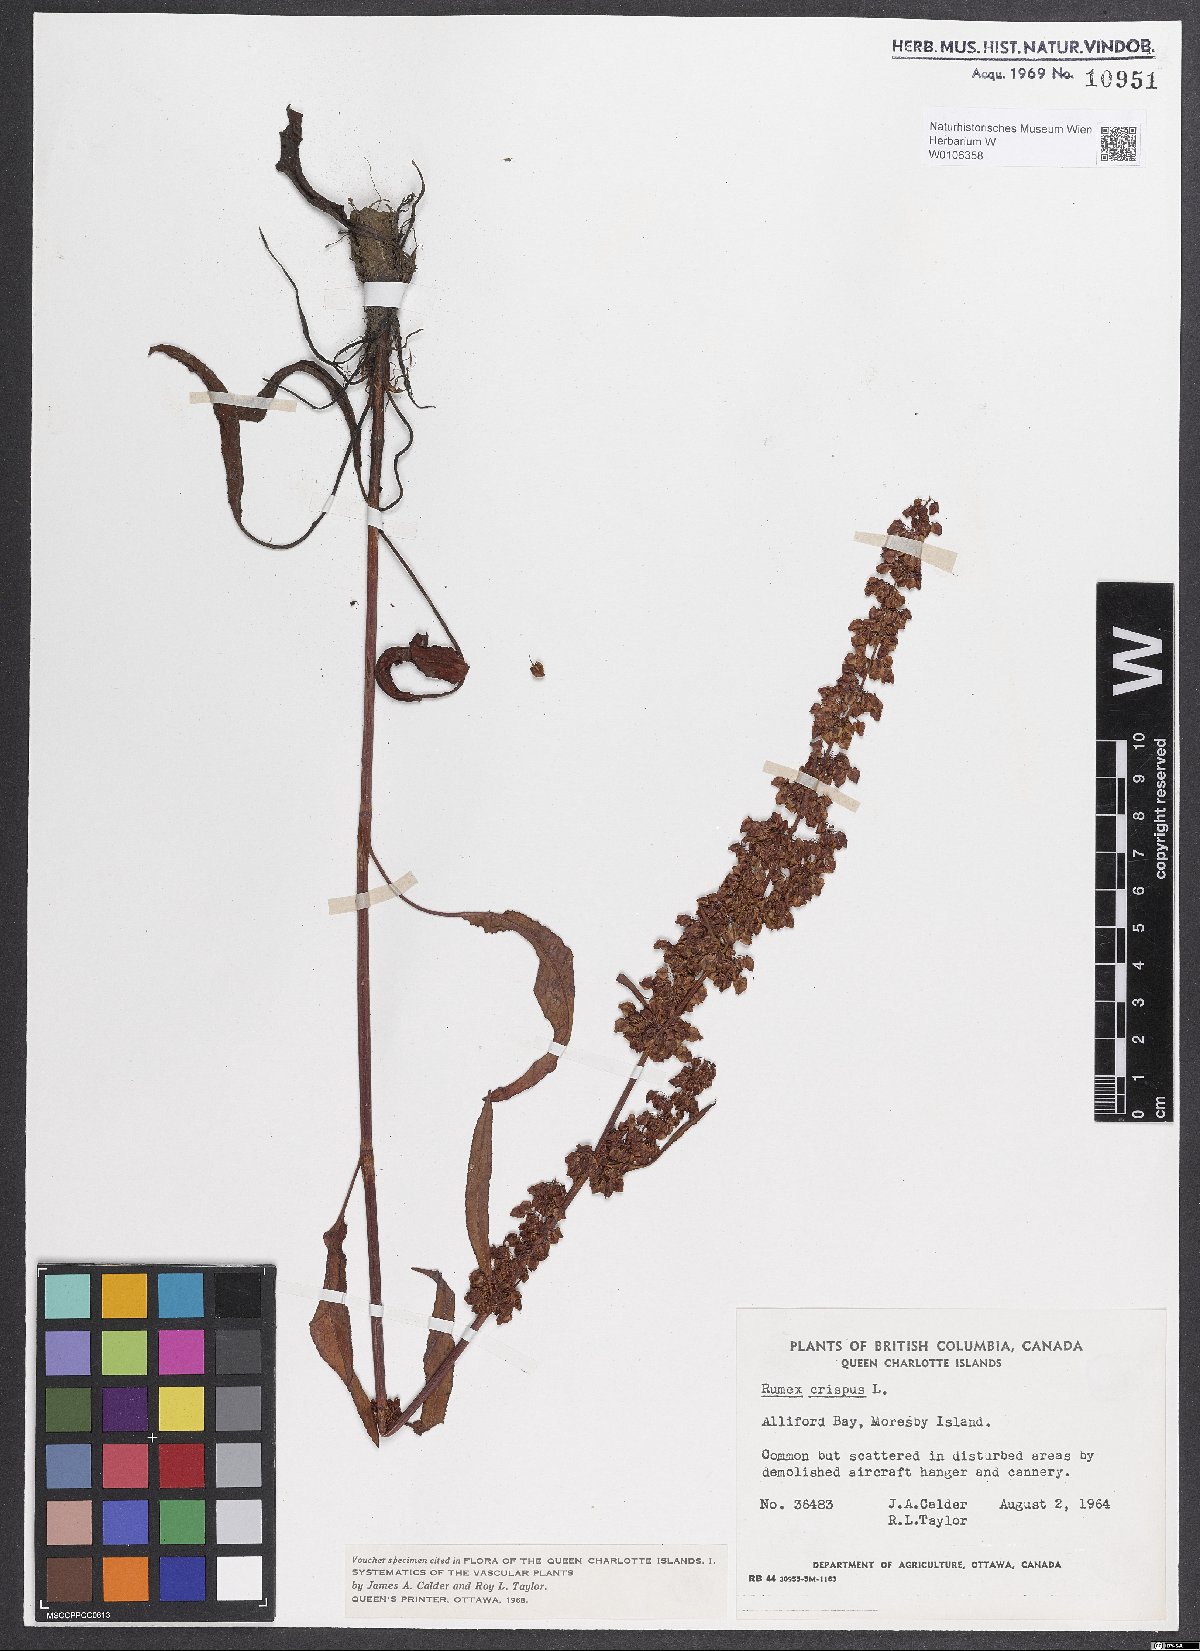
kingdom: Plantae
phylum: Tracheophyta
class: Magnoliopsida
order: Caryophyllales
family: Polygonaceae
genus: Rumex
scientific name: Rumex crispus
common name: Curled dock
